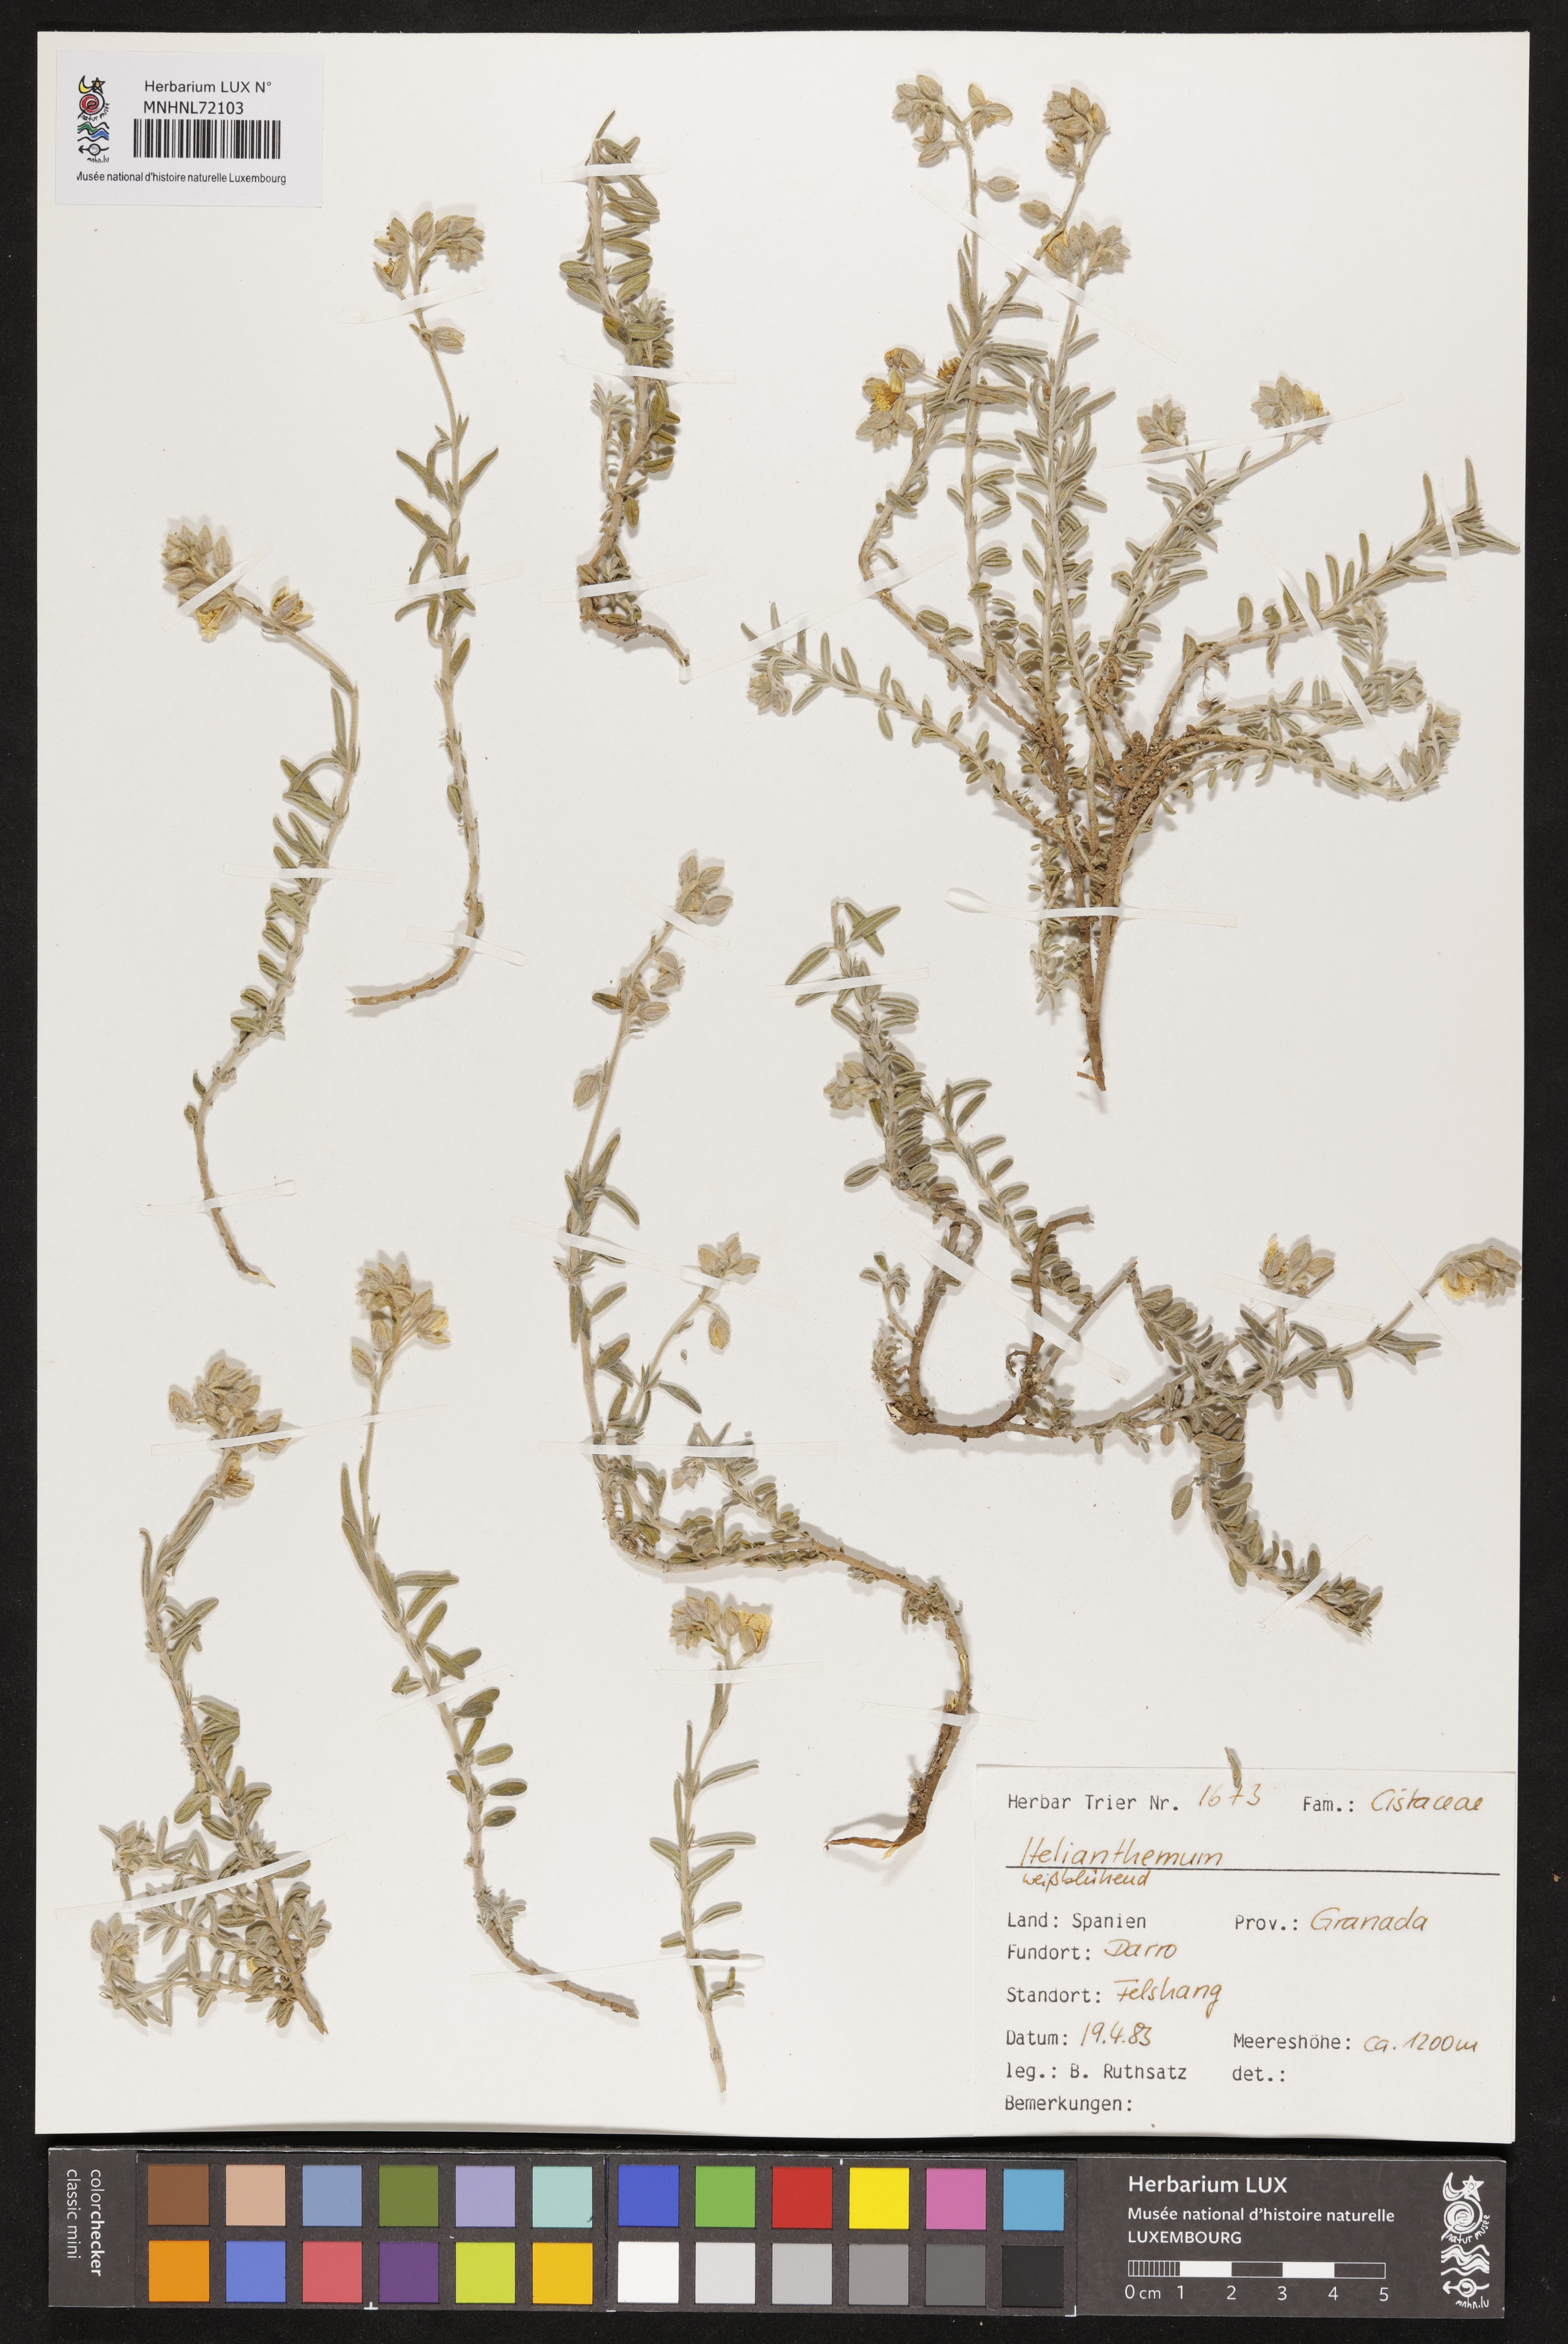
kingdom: Plantae
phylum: Tracheophyta
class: Magnoliopsida
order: Malvales
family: Cistaceae
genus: Helianthemum
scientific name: Helianthemum
